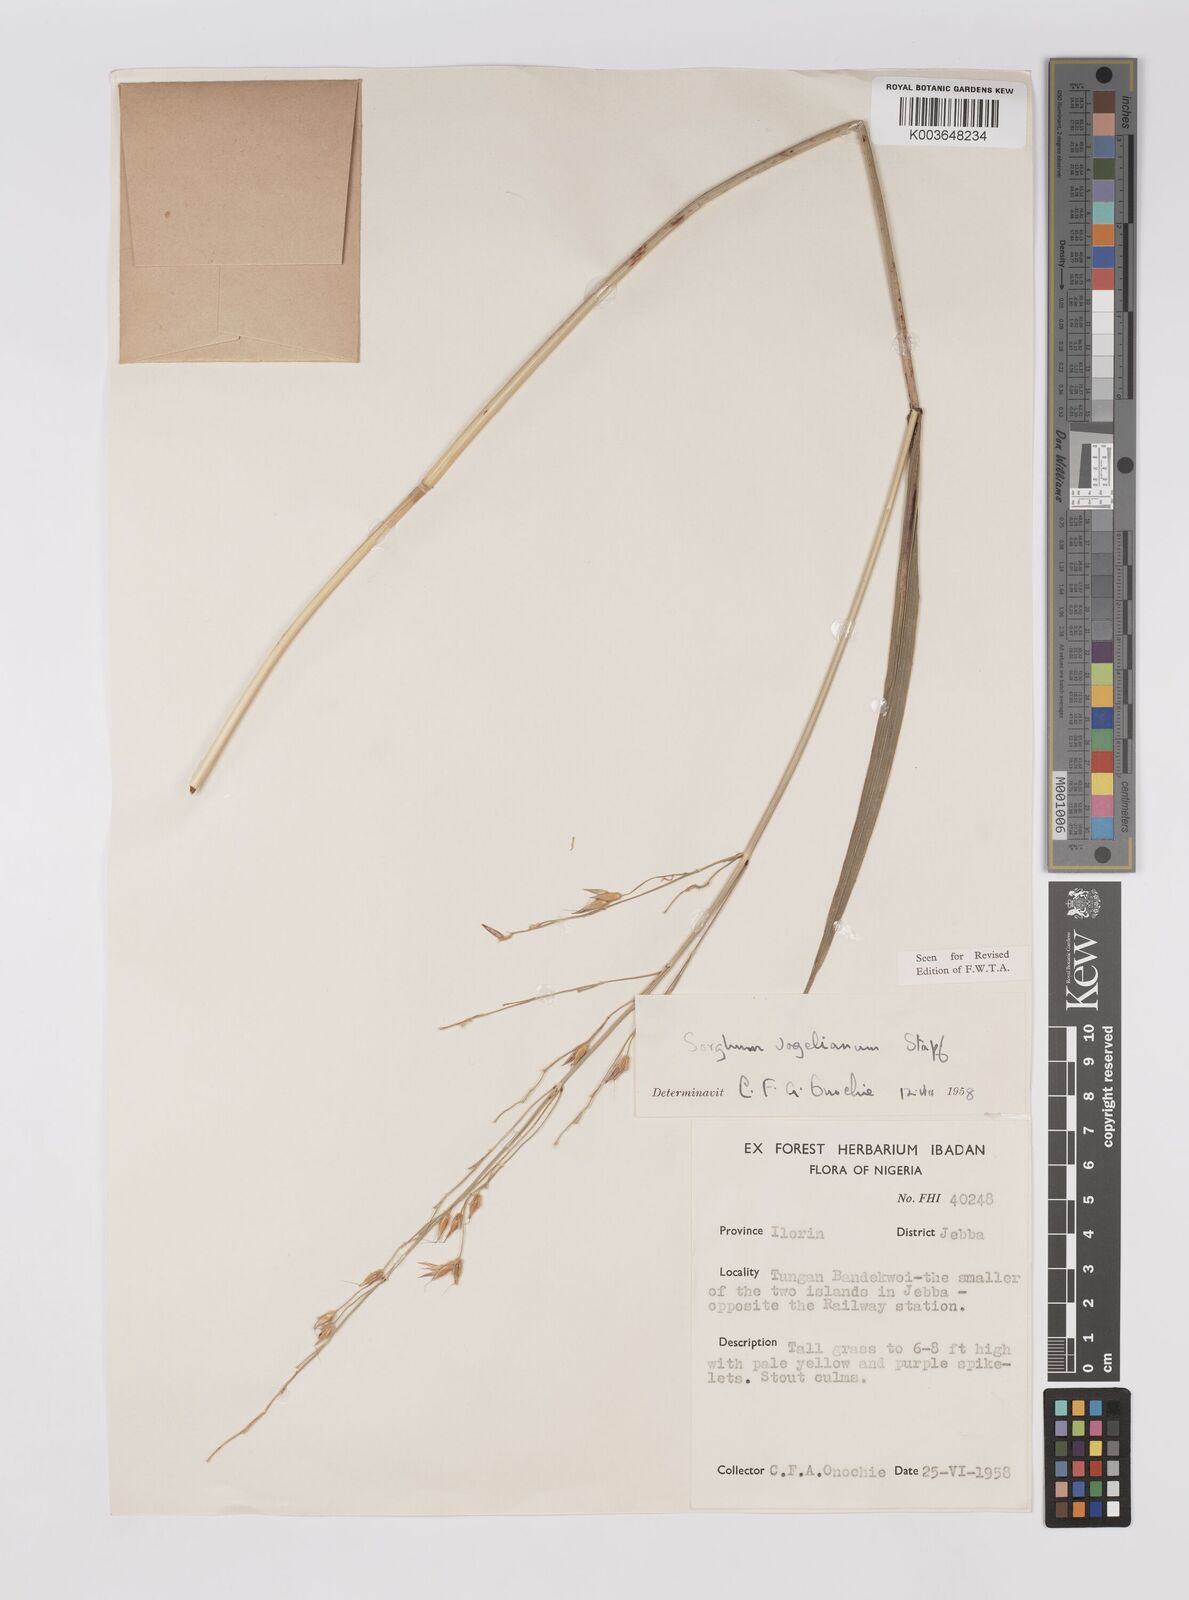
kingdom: Plantae
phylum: Tracheophyta
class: Liliopsida
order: Poales
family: Poaceae
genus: Sorghum
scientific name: Sorghum arundinaceum
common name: Sorghum
